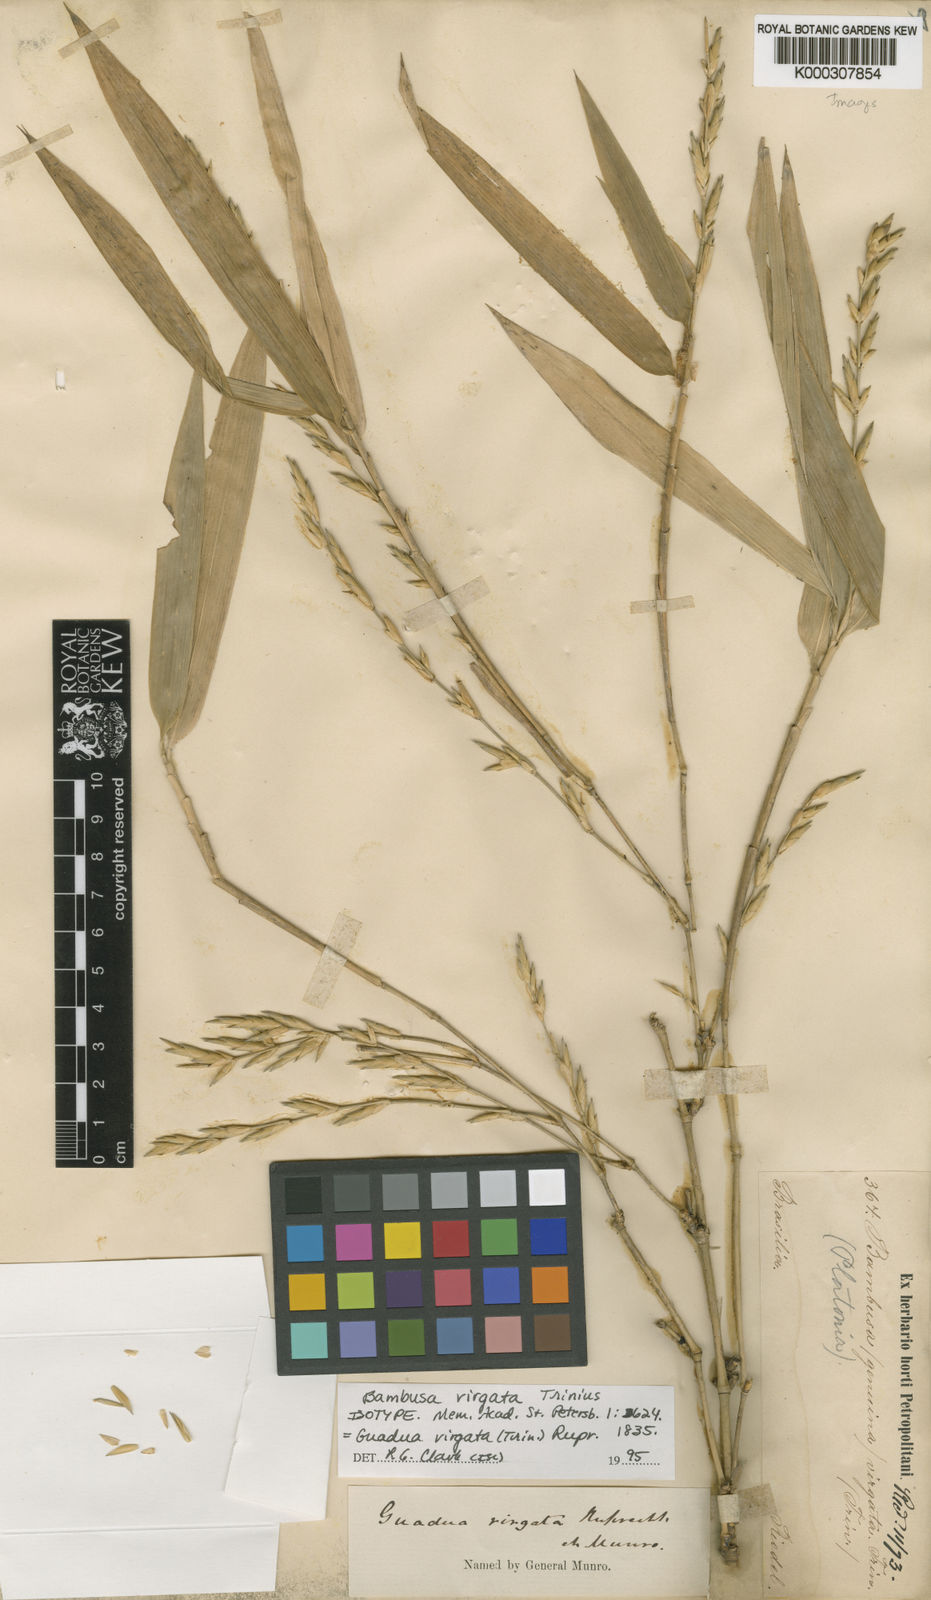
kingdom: Plantae
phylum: Tracheophyta
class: Liliopsida
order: Poales
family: Poaceae
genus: Guadua
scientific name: Guadua virgata
